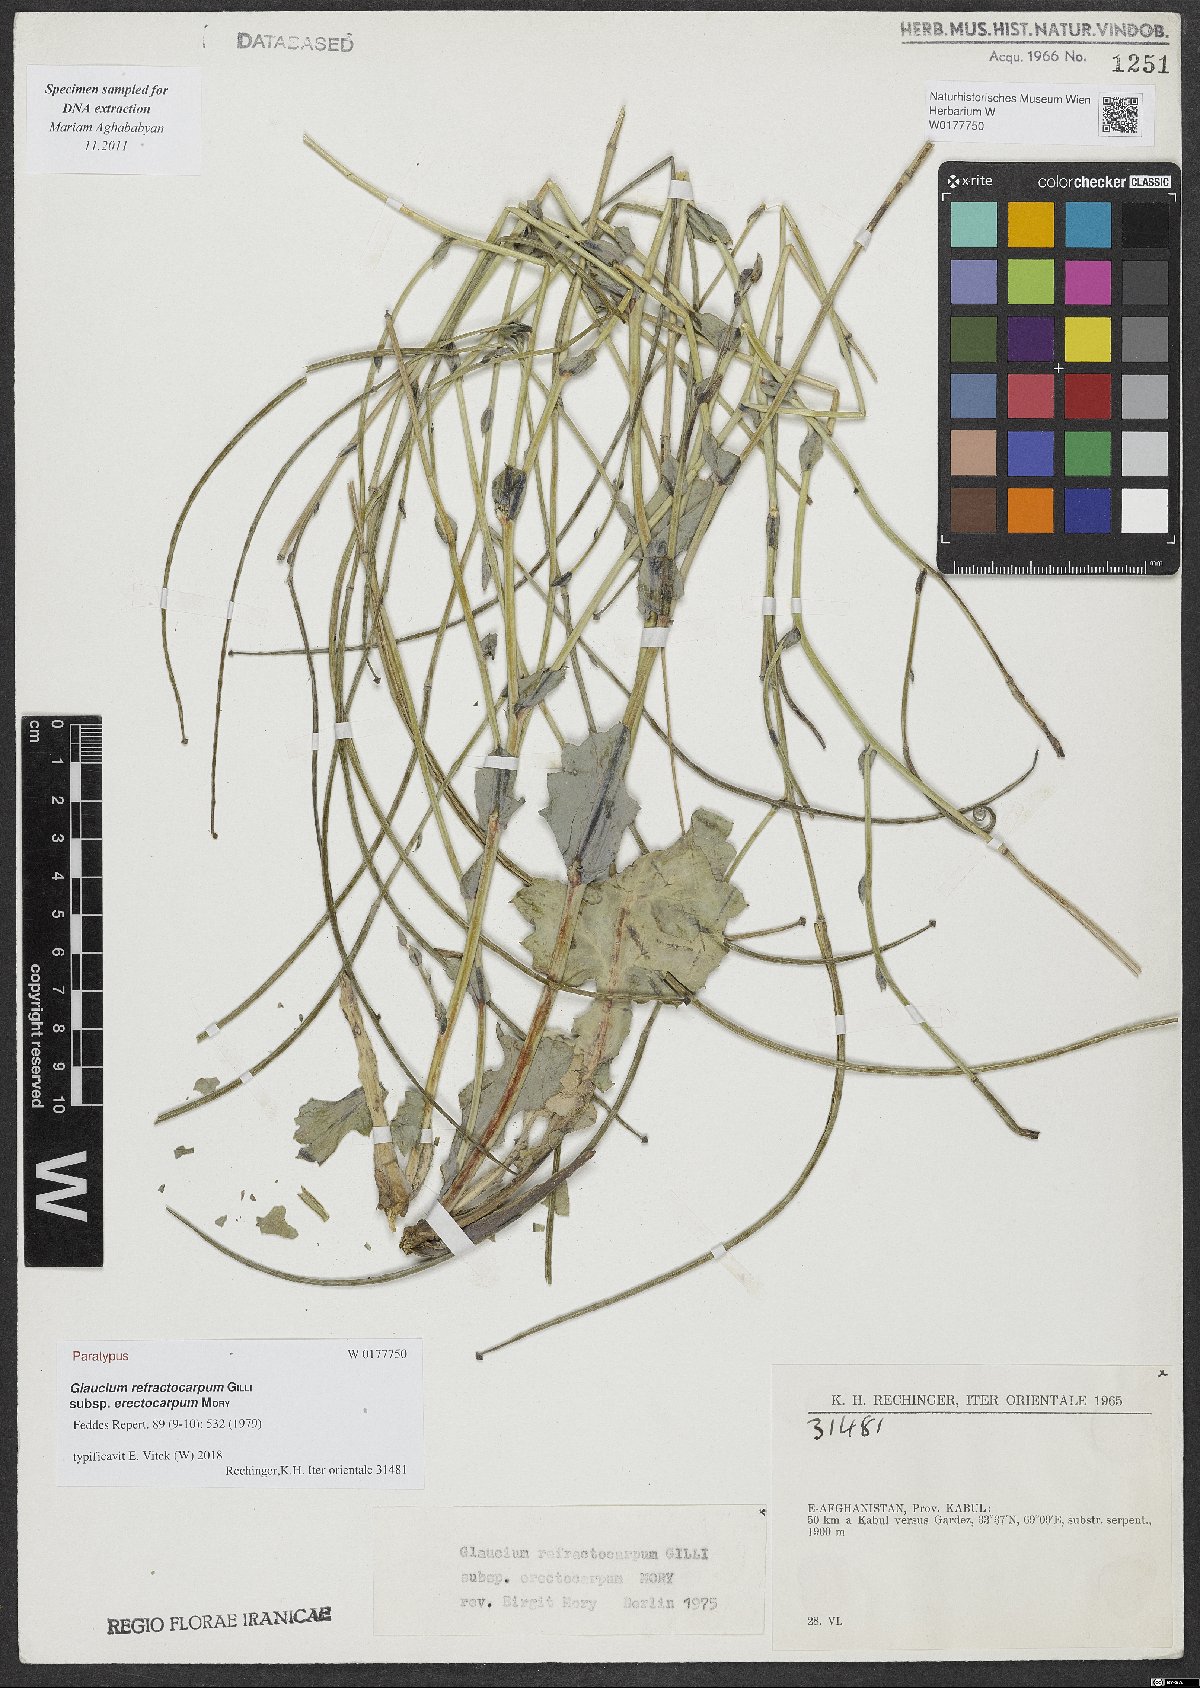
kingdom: Plantae
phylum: Tracheophyta
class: Magnoliopsida
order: Ranunculales
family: Papaveraceae
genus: Glaucium
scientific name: Glaucium refractocarpum
